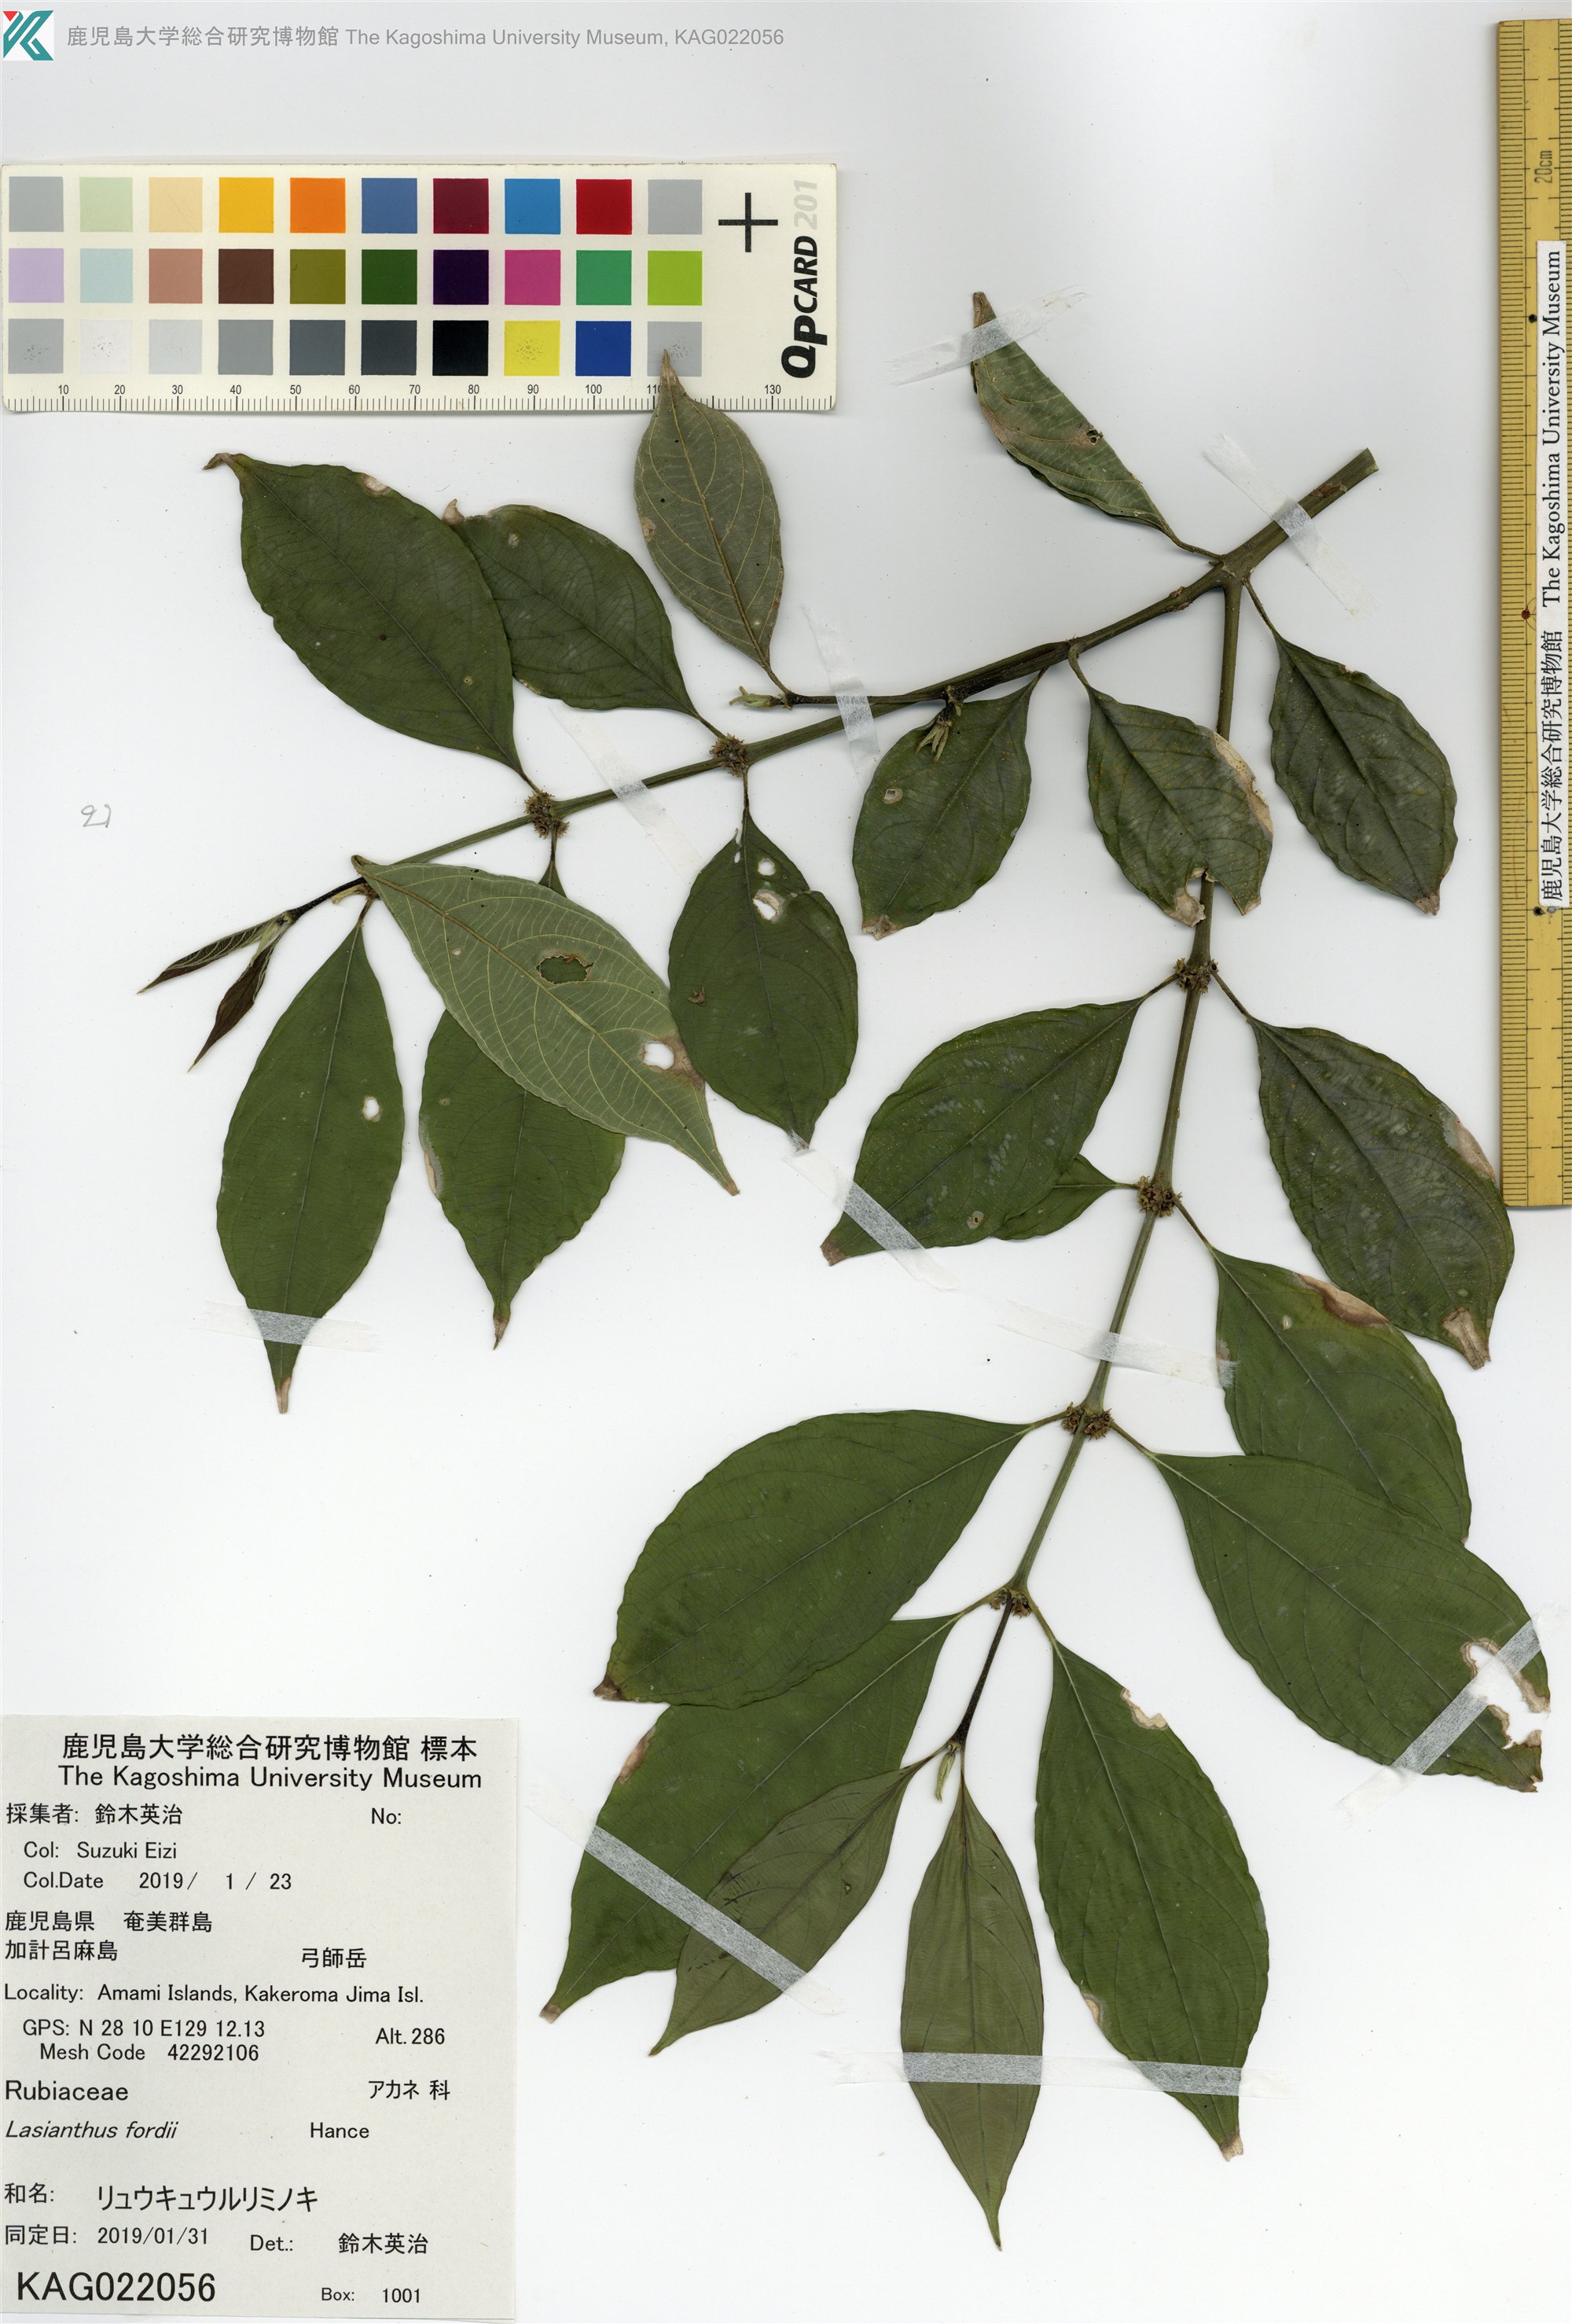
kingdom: Plantae
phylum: Tracheophyta
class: Magnoliopsida
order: Gentianales
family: Rubiaceae
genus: Lasianthus
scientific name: Lasianthus fordii
